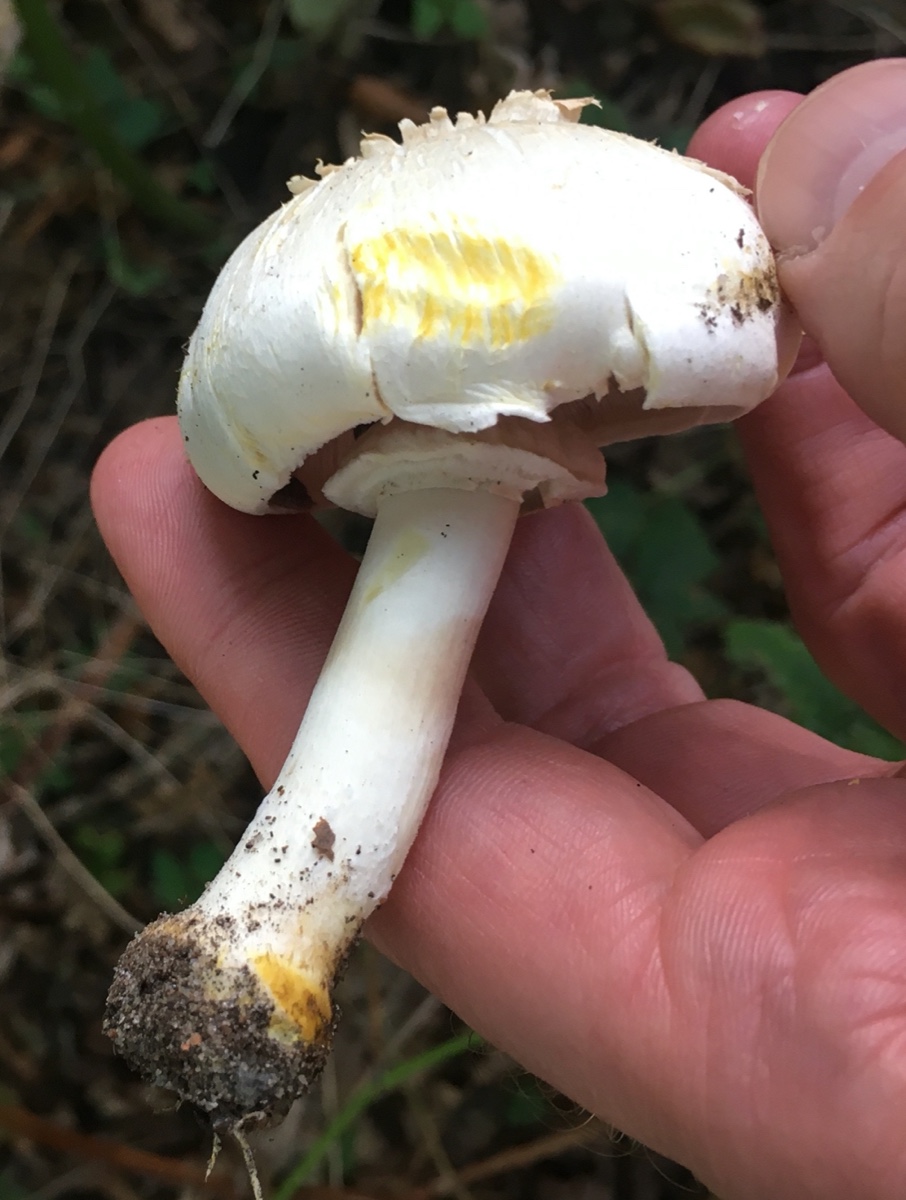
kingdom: Fungi
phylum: Basidiomycota
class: Agaricomycetes
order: Agaricales
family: Agaricaceae
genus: Agaricus
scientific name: Agaricus xanthodermus
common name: karbol-champignon
